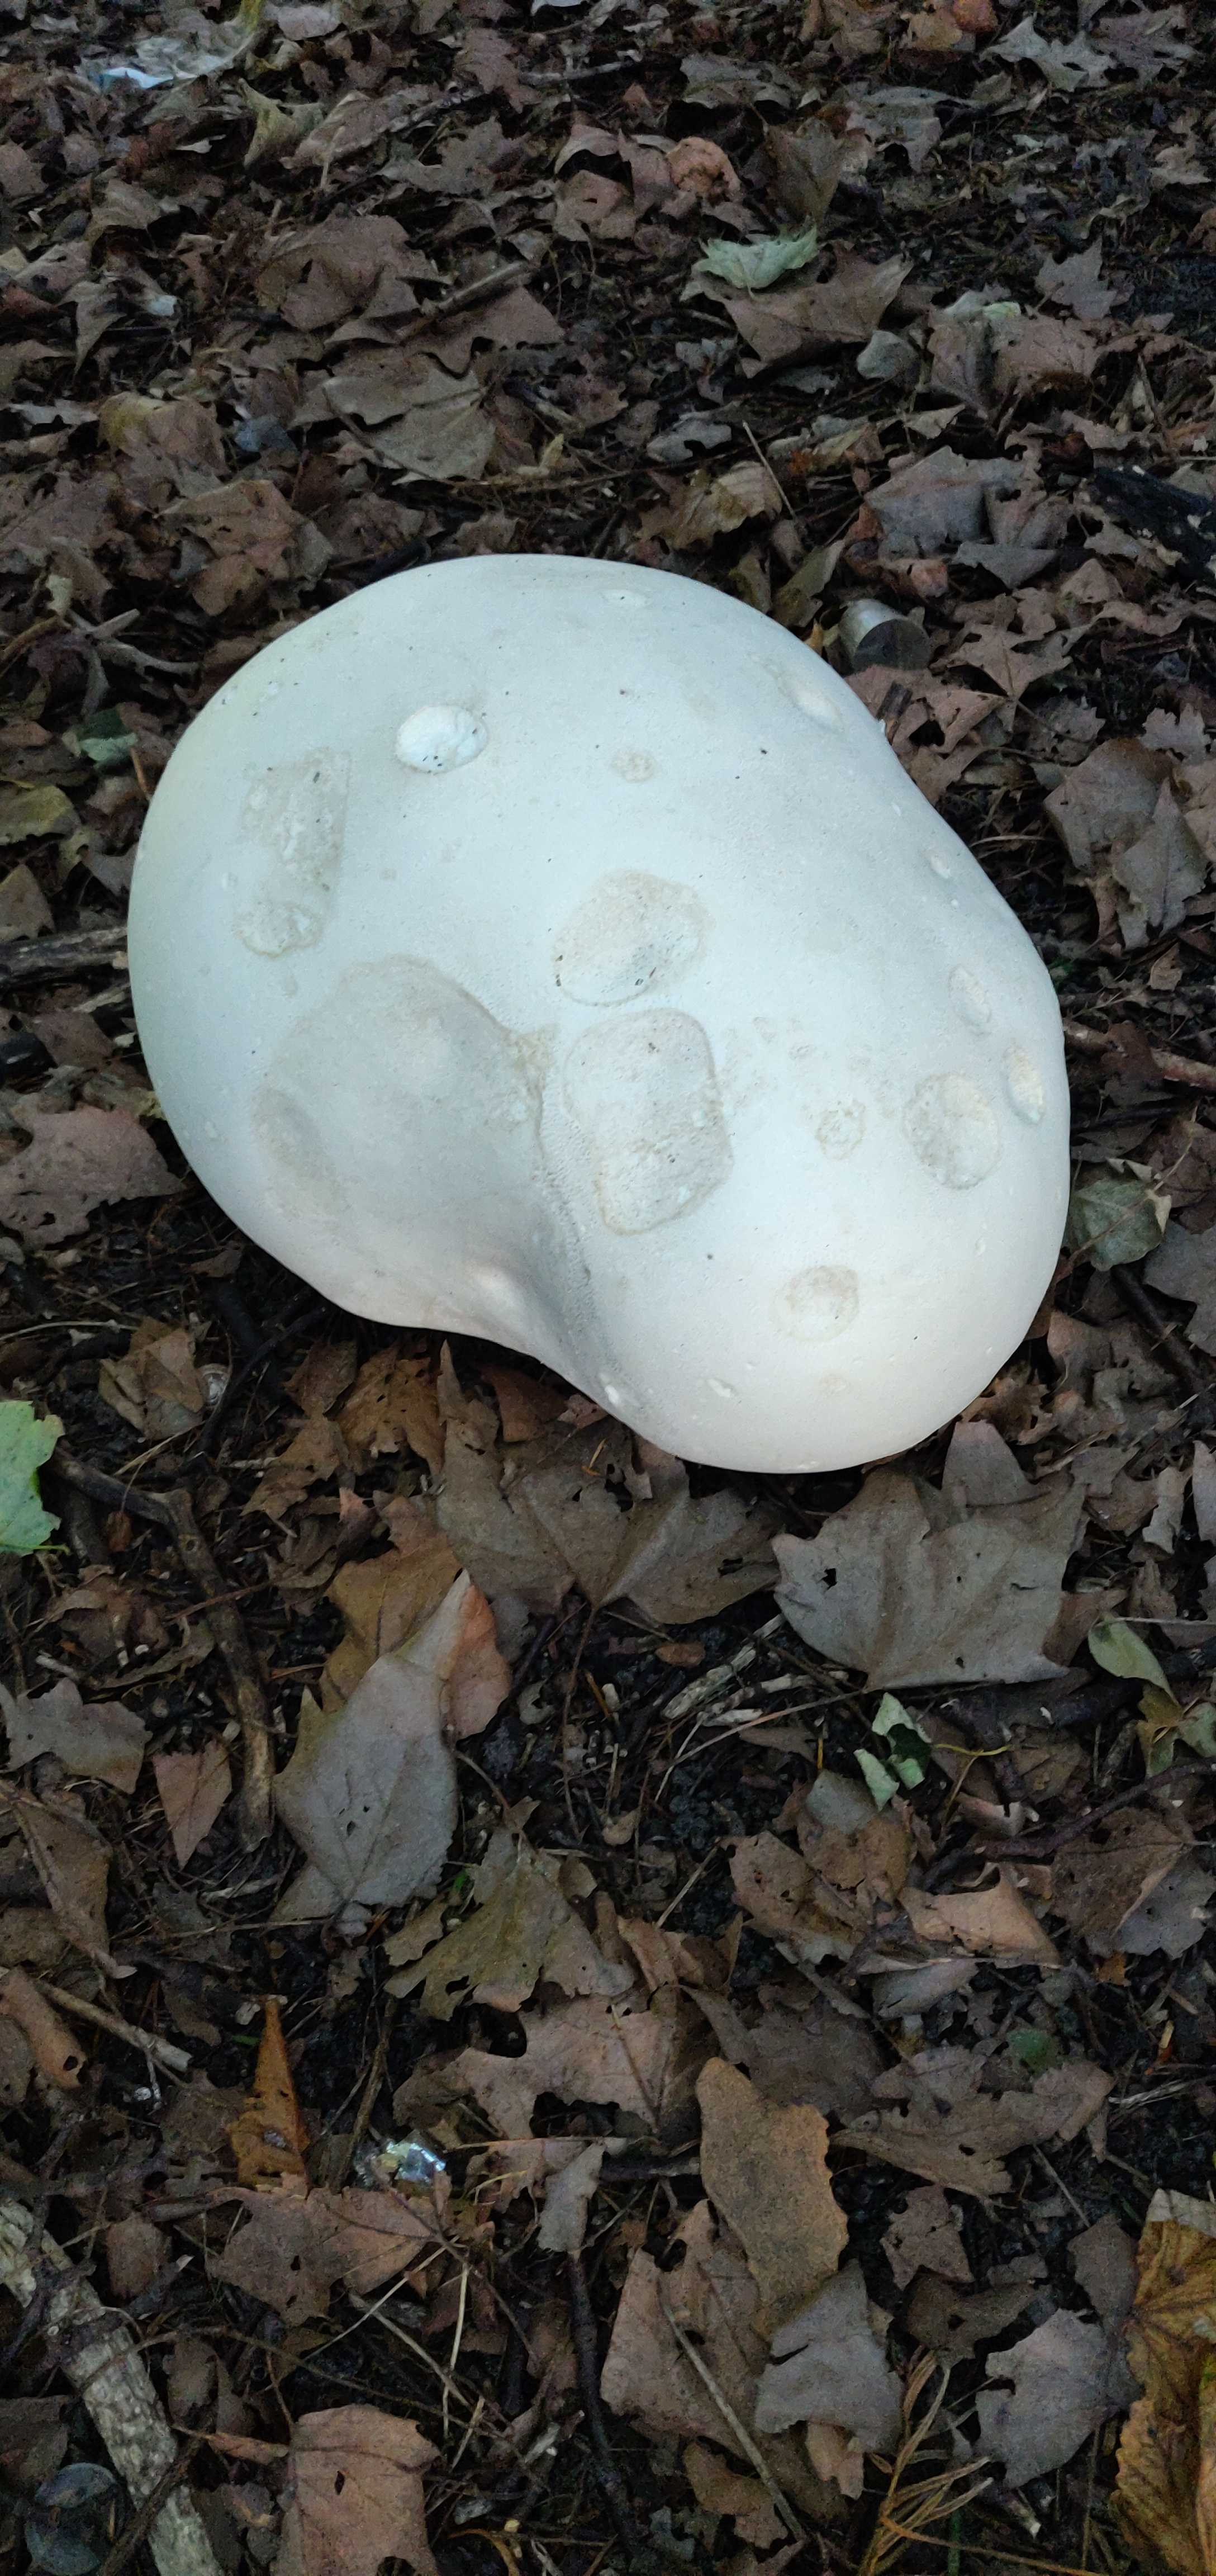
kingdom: Fungi
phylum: Basidiomycota
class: Agaricomycetes
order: Agaricales
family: Lycoperdaceae
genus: Calvatia
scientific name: Calvatia gigantea
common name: kæmpestøvbold
